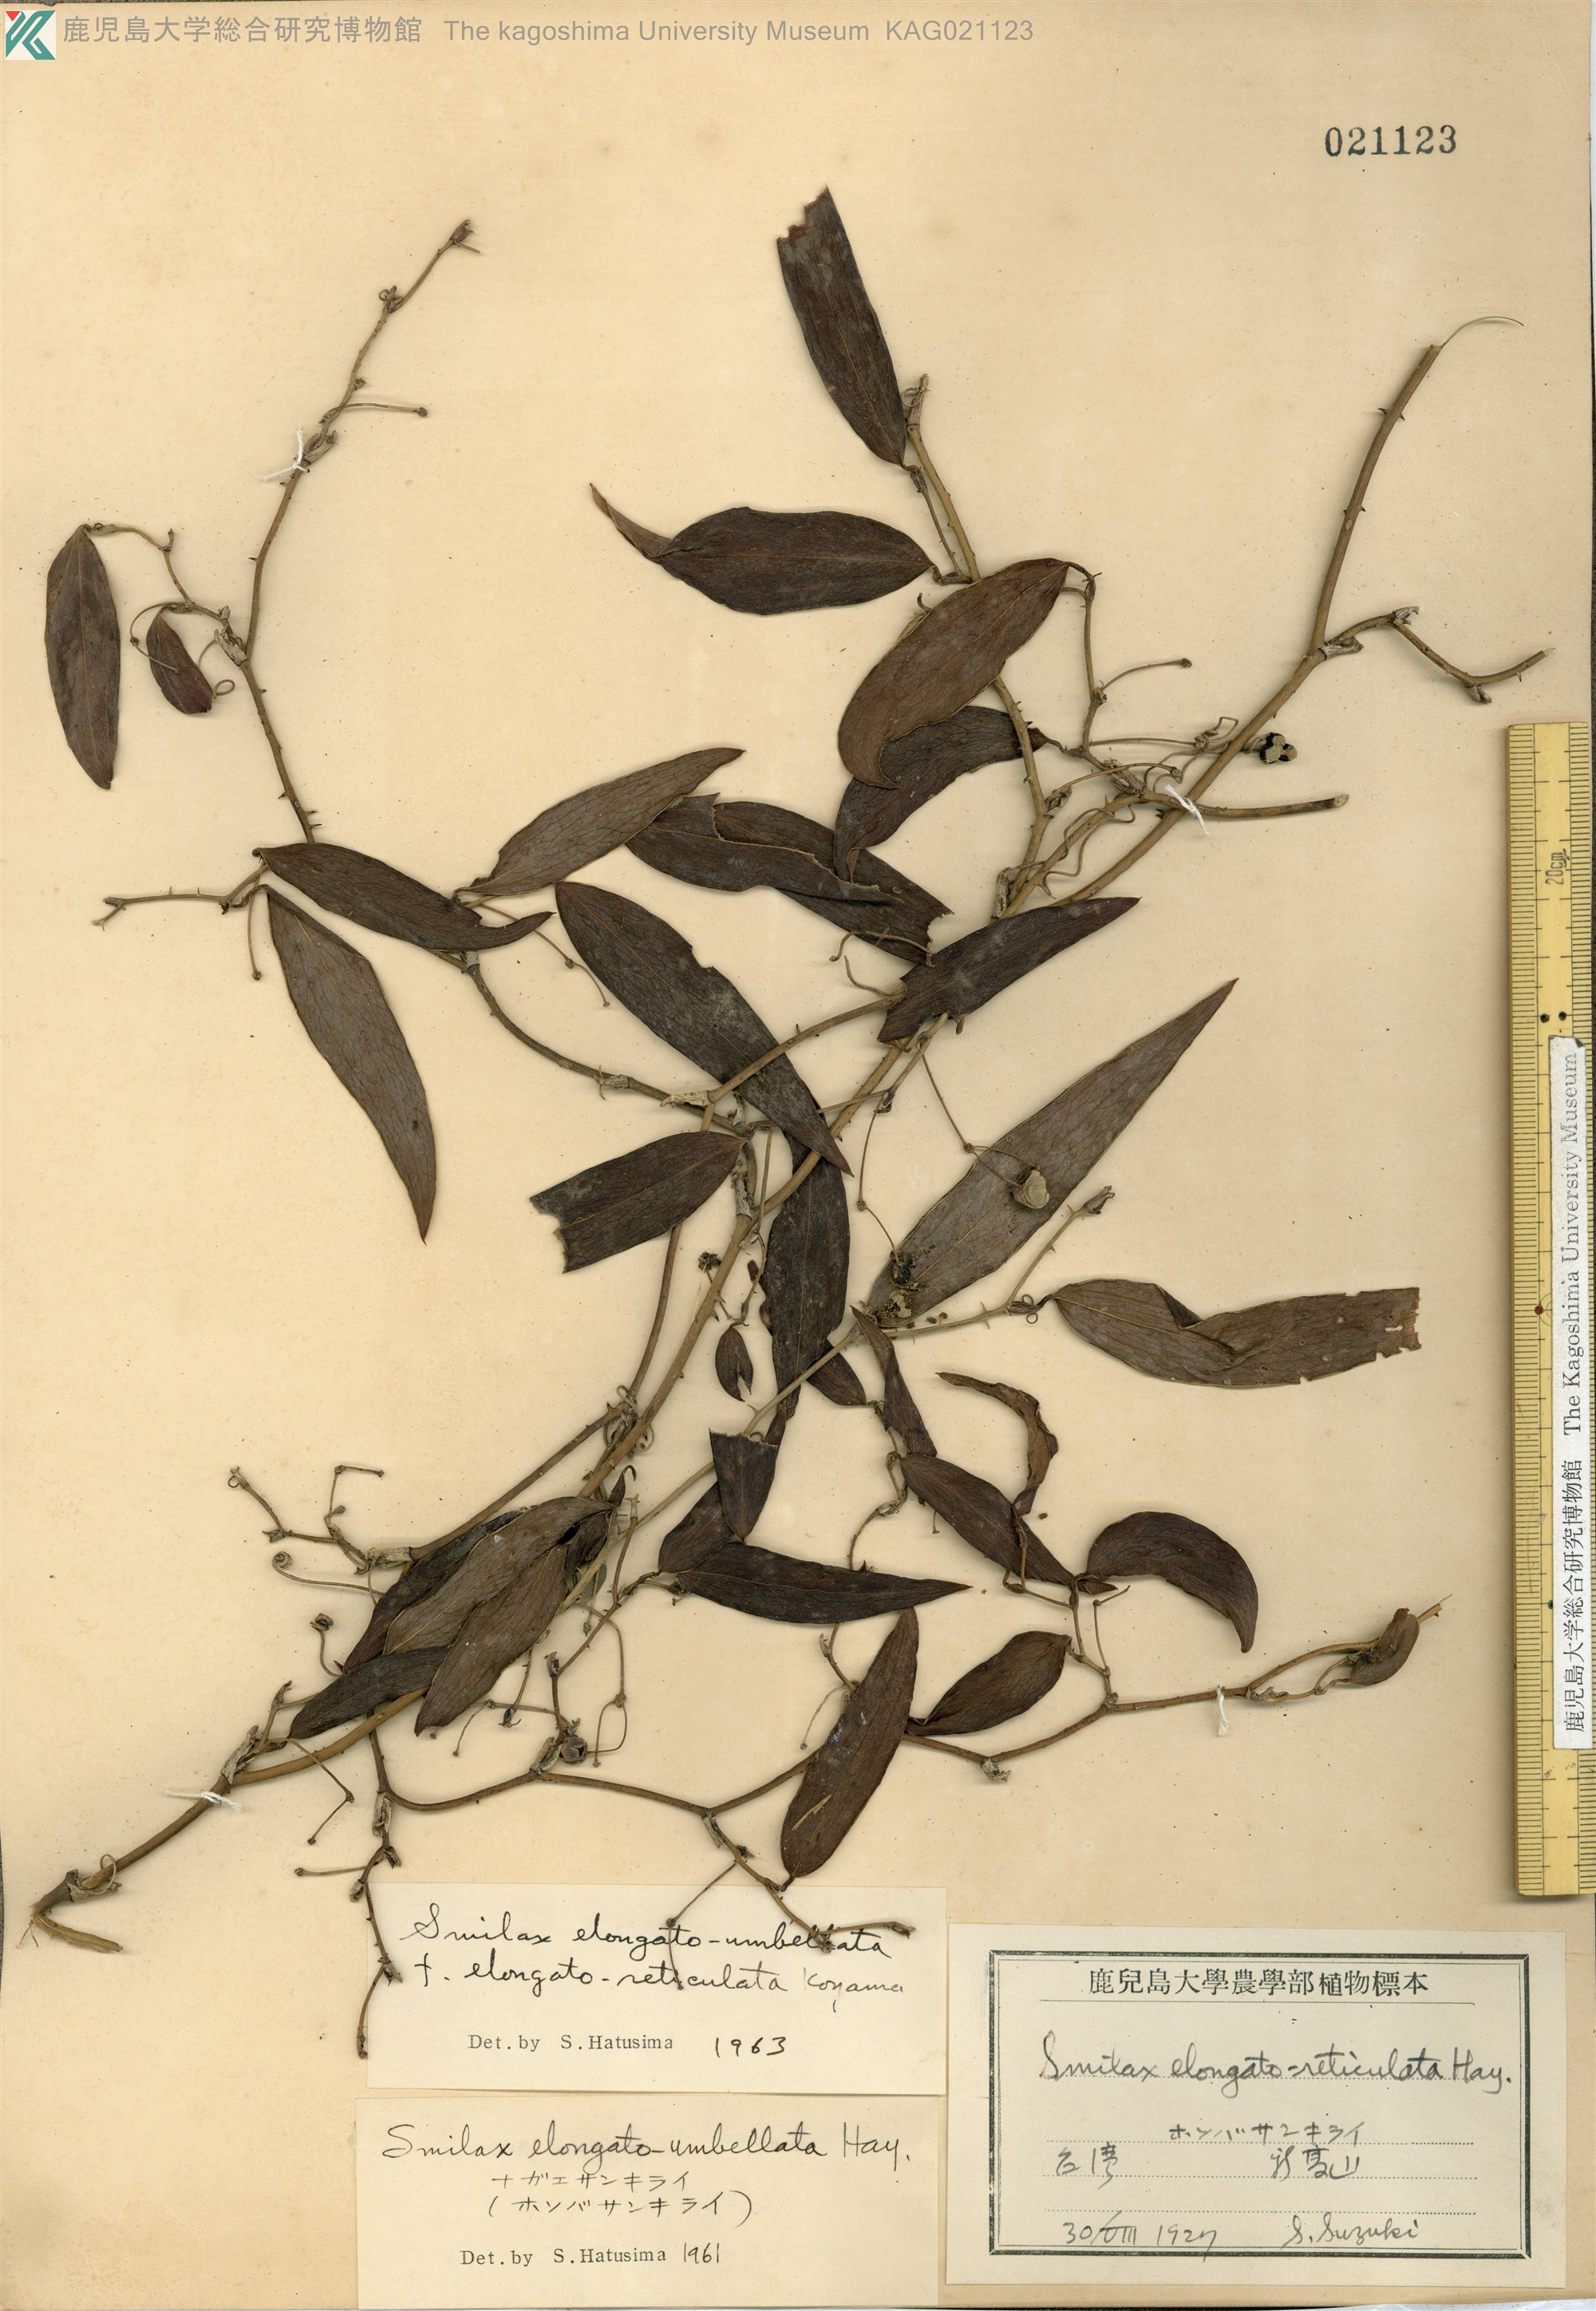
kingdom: Plantae
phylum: Tracheophyta
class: Liliopsida
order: Liliales
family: Smilacaceae
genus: Smilax
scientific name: Smilax
